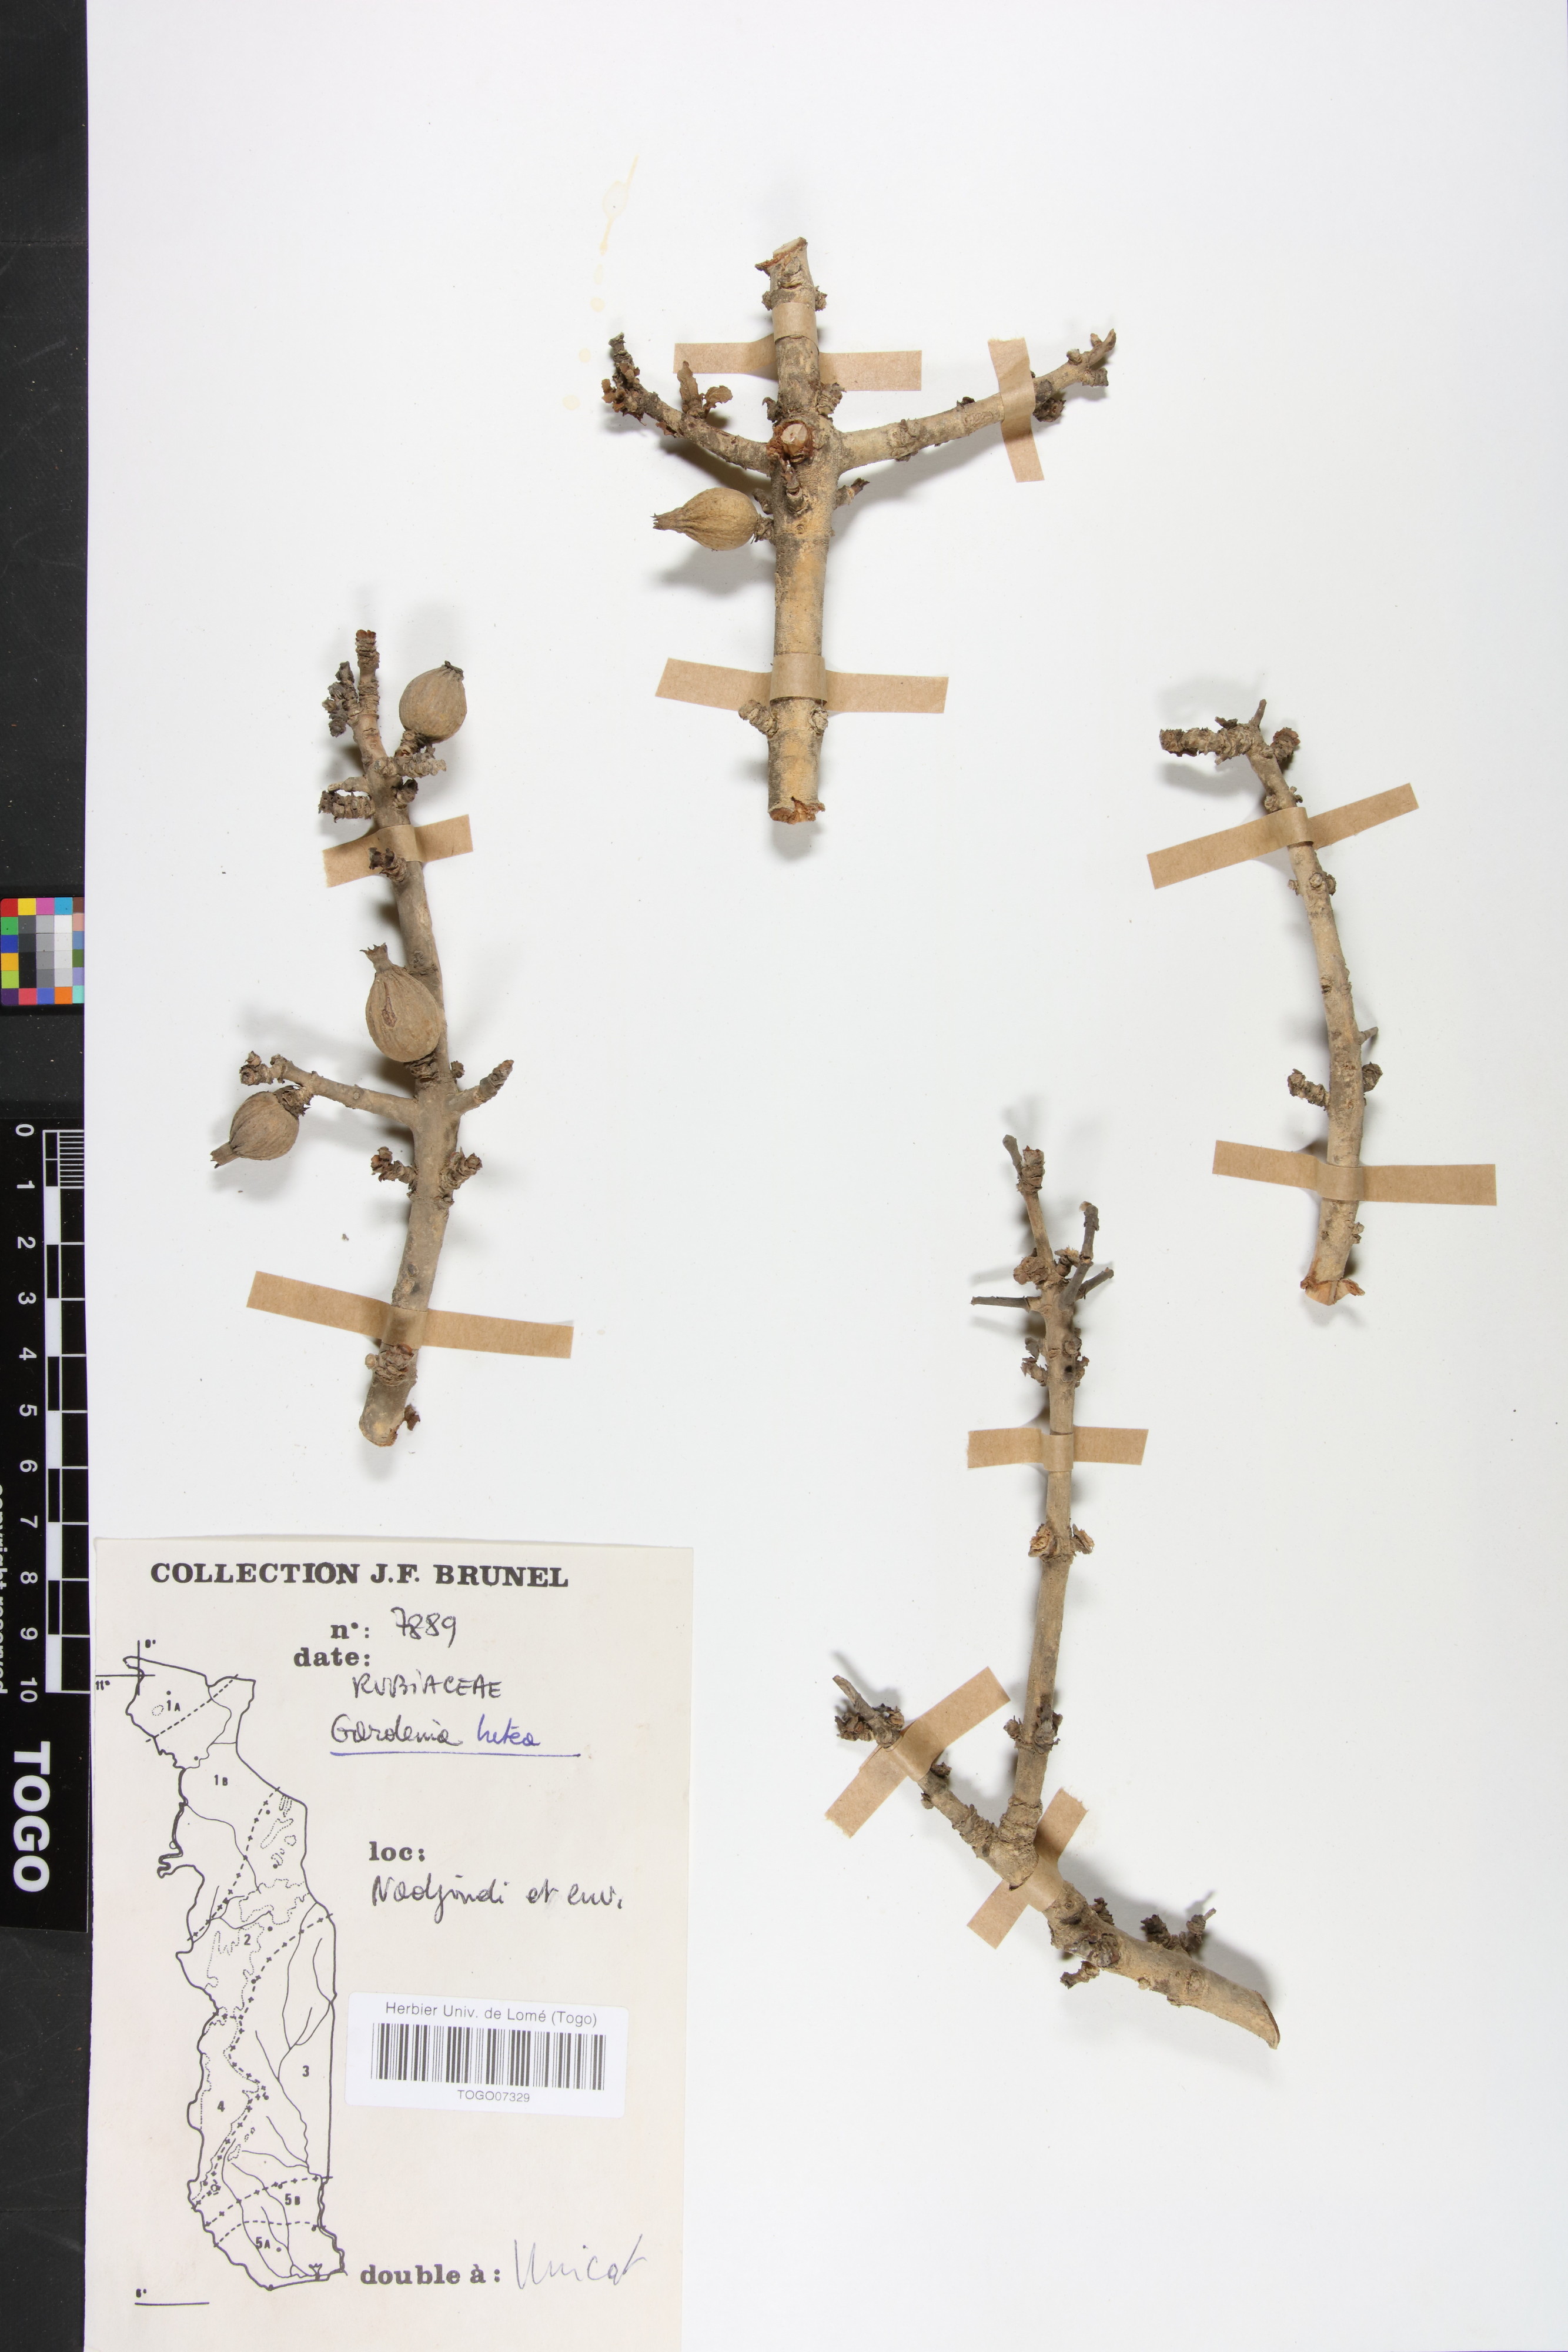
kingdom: Plantae
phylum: Tracheophyta
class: Magnoliopsida
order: Gentianales
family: Rubiaceae
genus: Gardenia
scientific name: Gardenia ternifolia
